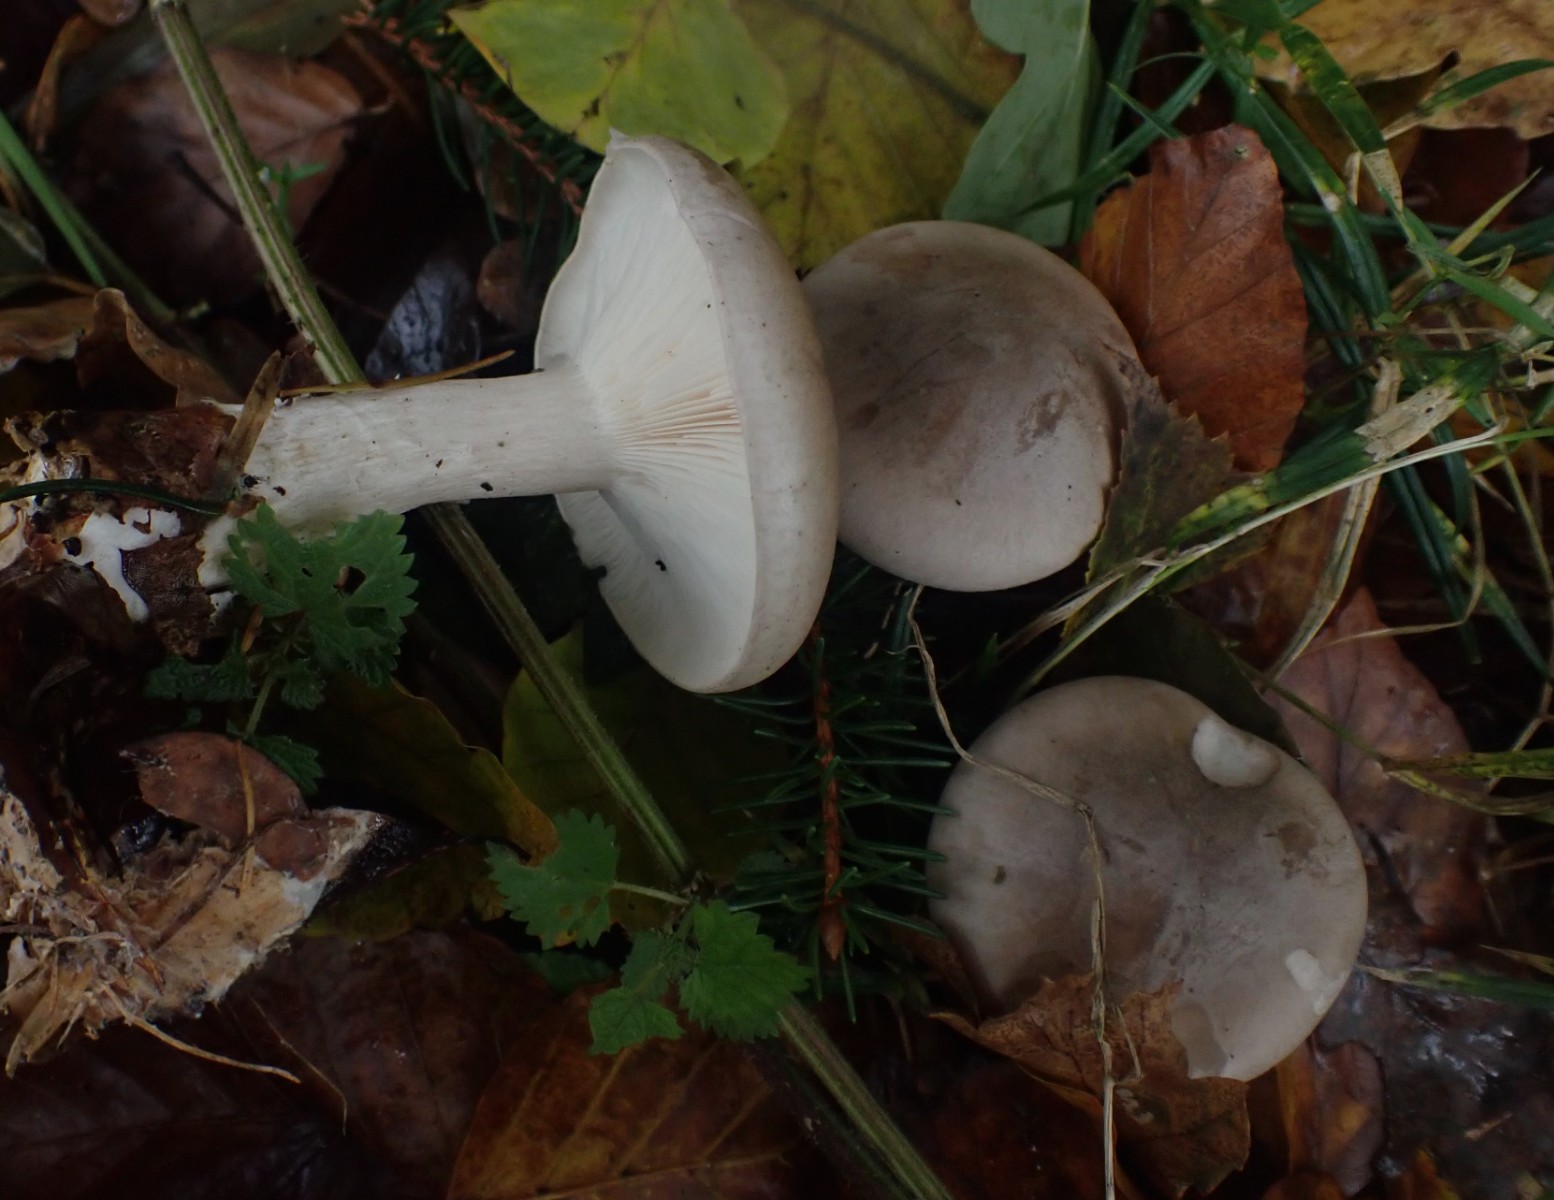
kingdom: Fungi
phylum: Basidiomycota
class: Agaricomycetes
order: Agaricales
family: Tricholomataceae
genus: Clitocybe
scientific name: Clitocybe nebularis
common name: tåge-tragthat
